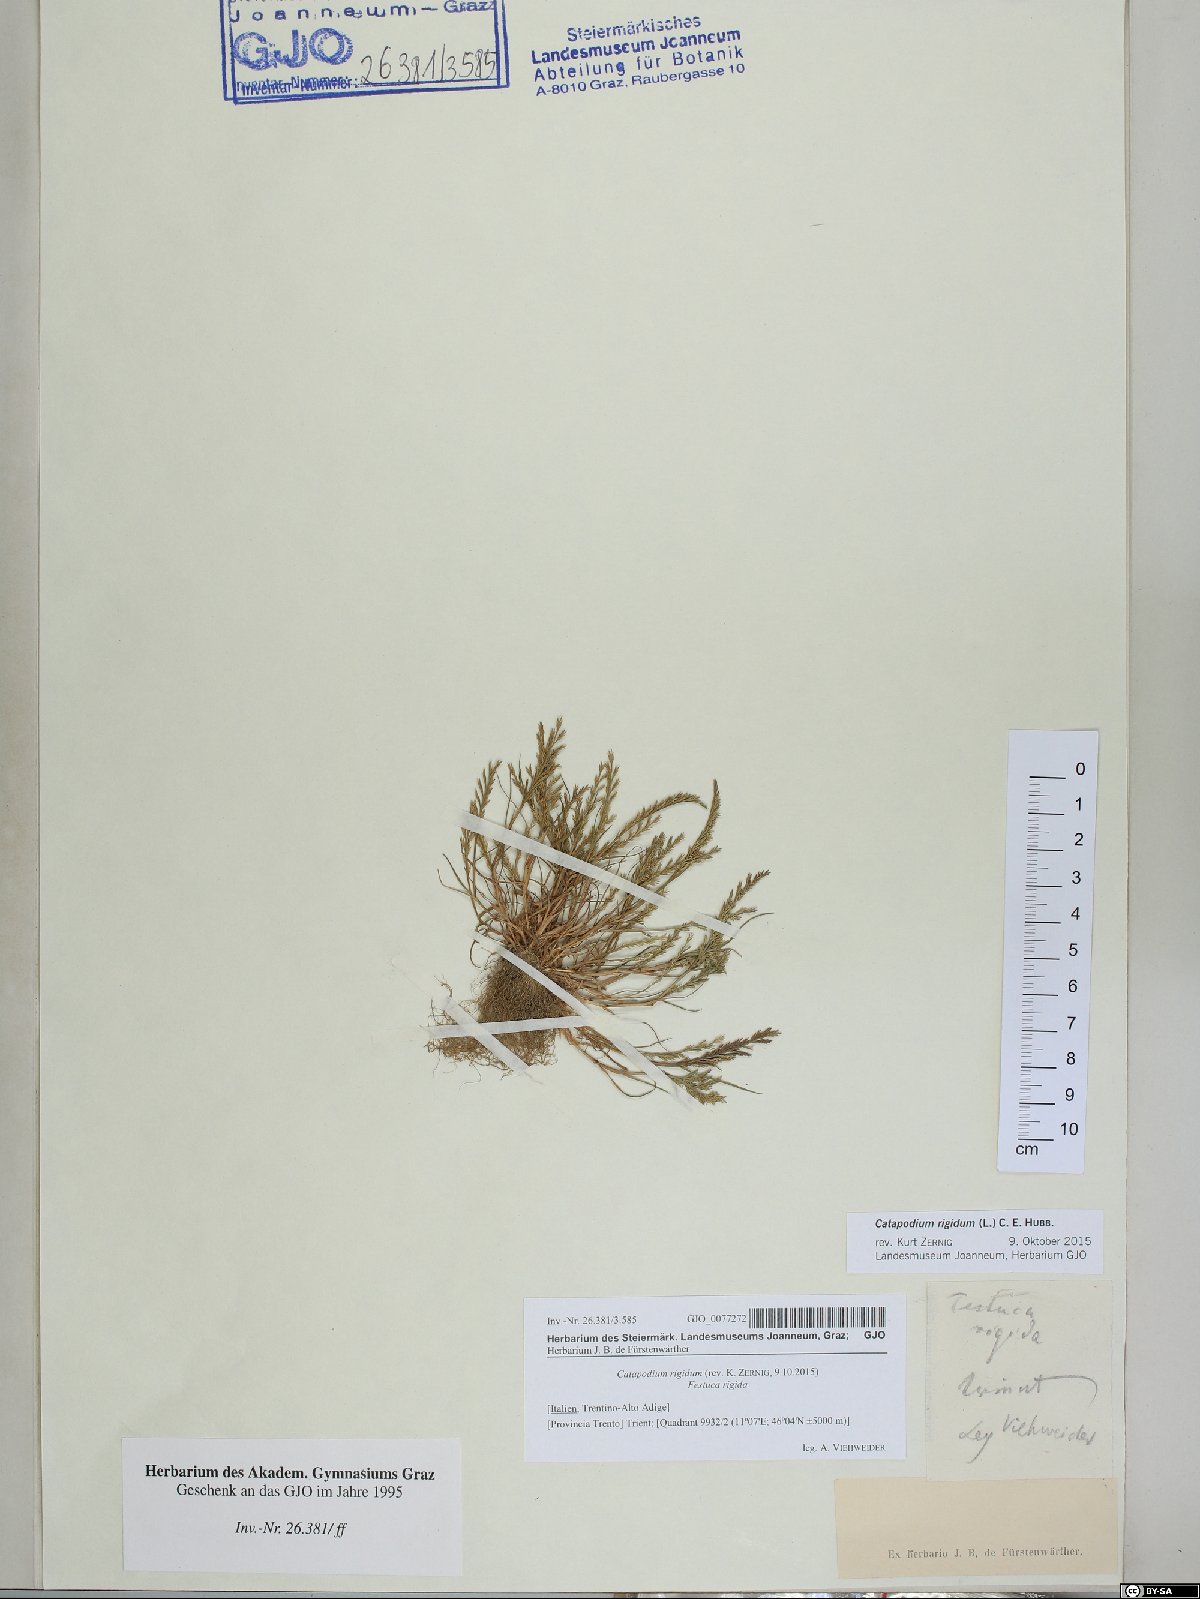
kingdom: Plantae
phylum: Tracheophyta
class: Liliopsida
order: Poales
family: Poaceae
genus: Catapodium
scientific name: Catapodium rigidum
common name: Fern-grass
